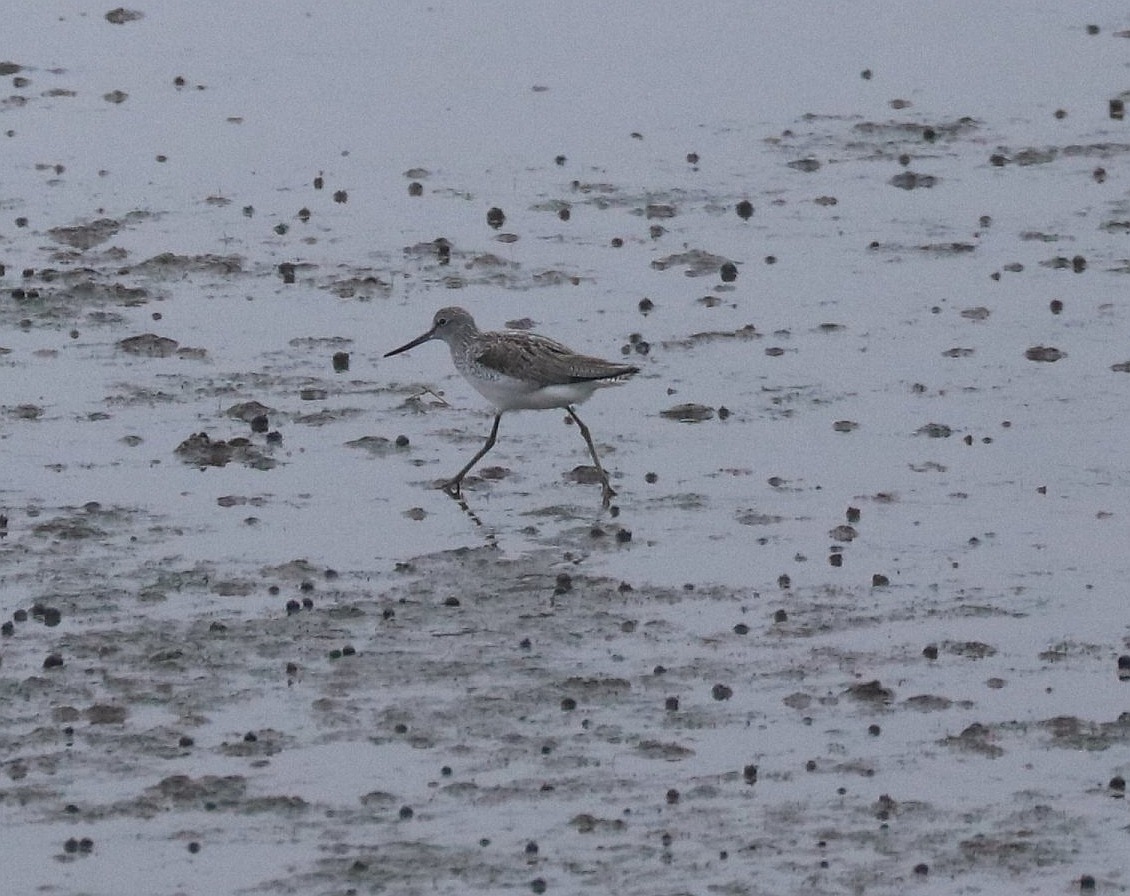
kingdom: Animalia
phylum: Chordata
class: Aves
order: Charadriiformes
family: Scolopacidae
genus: Tringa
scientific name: Tringa nebularia
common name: Hvidklire
